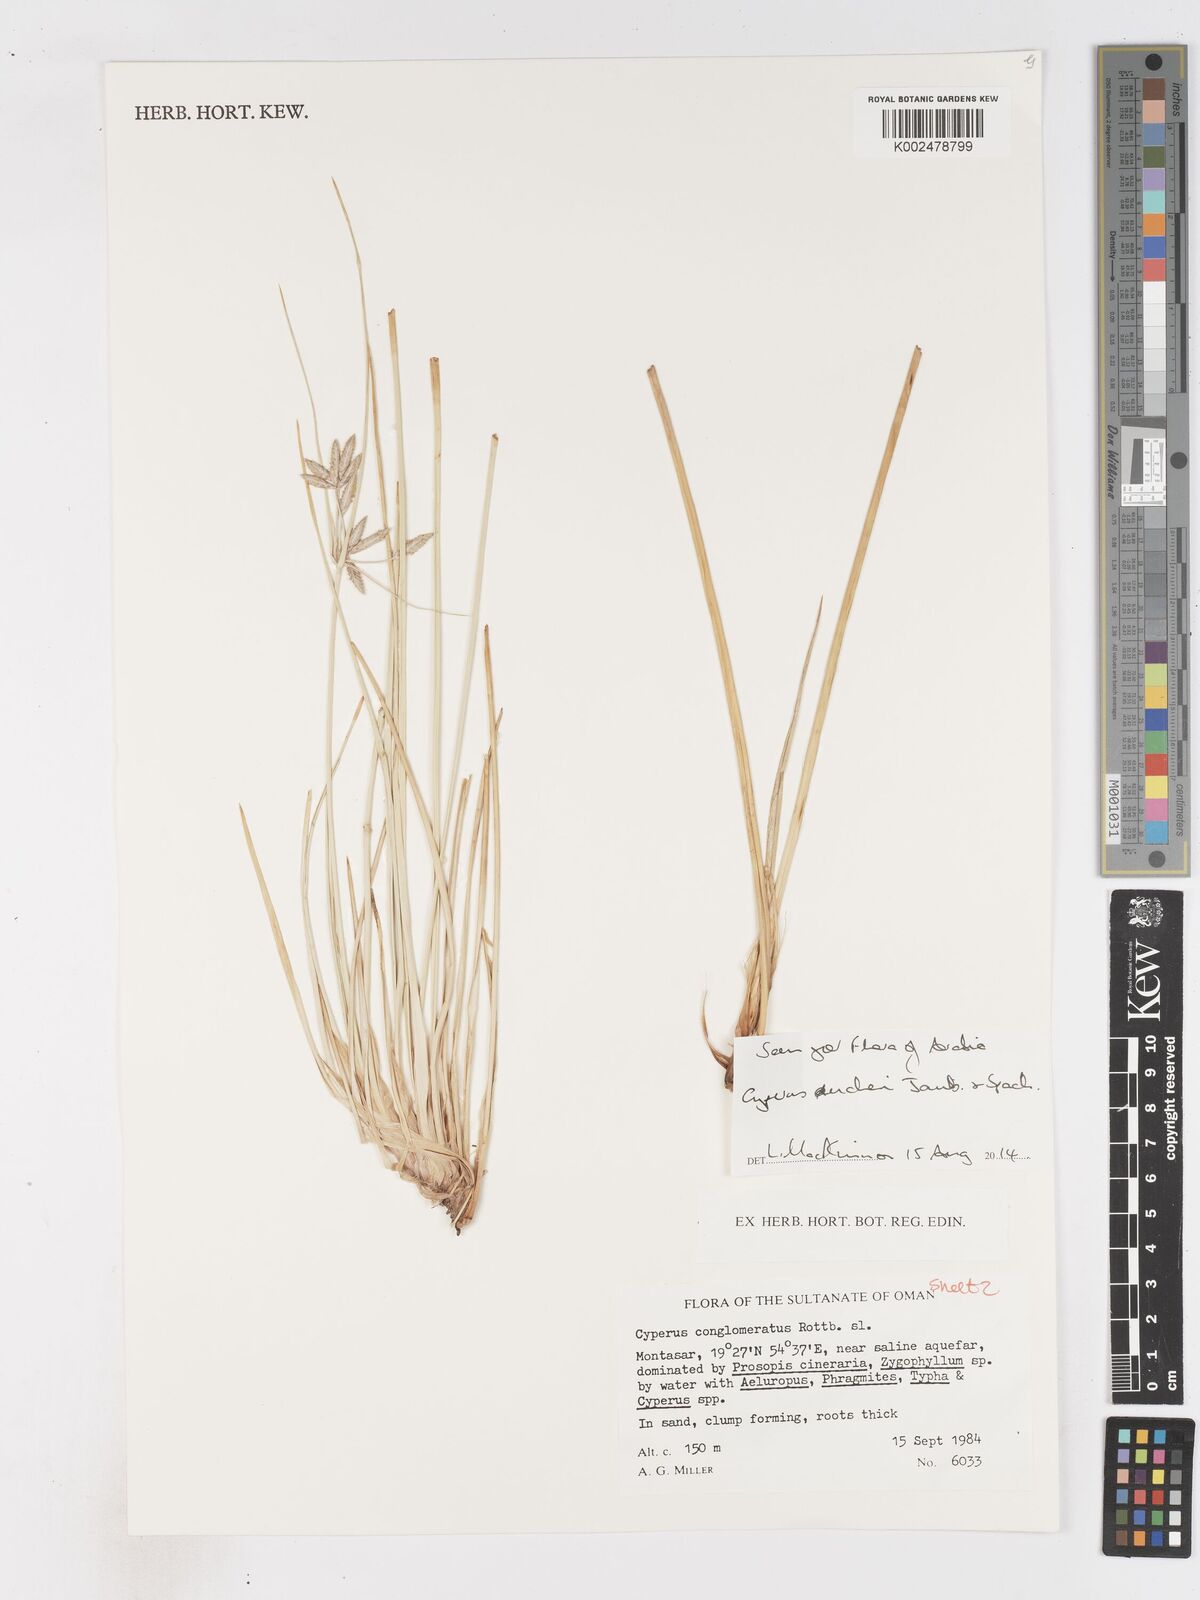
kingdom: Plantae
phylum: Tracheophyta
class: Liliopsida
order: Poales
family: Cyperaceae
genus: Cyperus
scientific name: Cyperus aucheri
